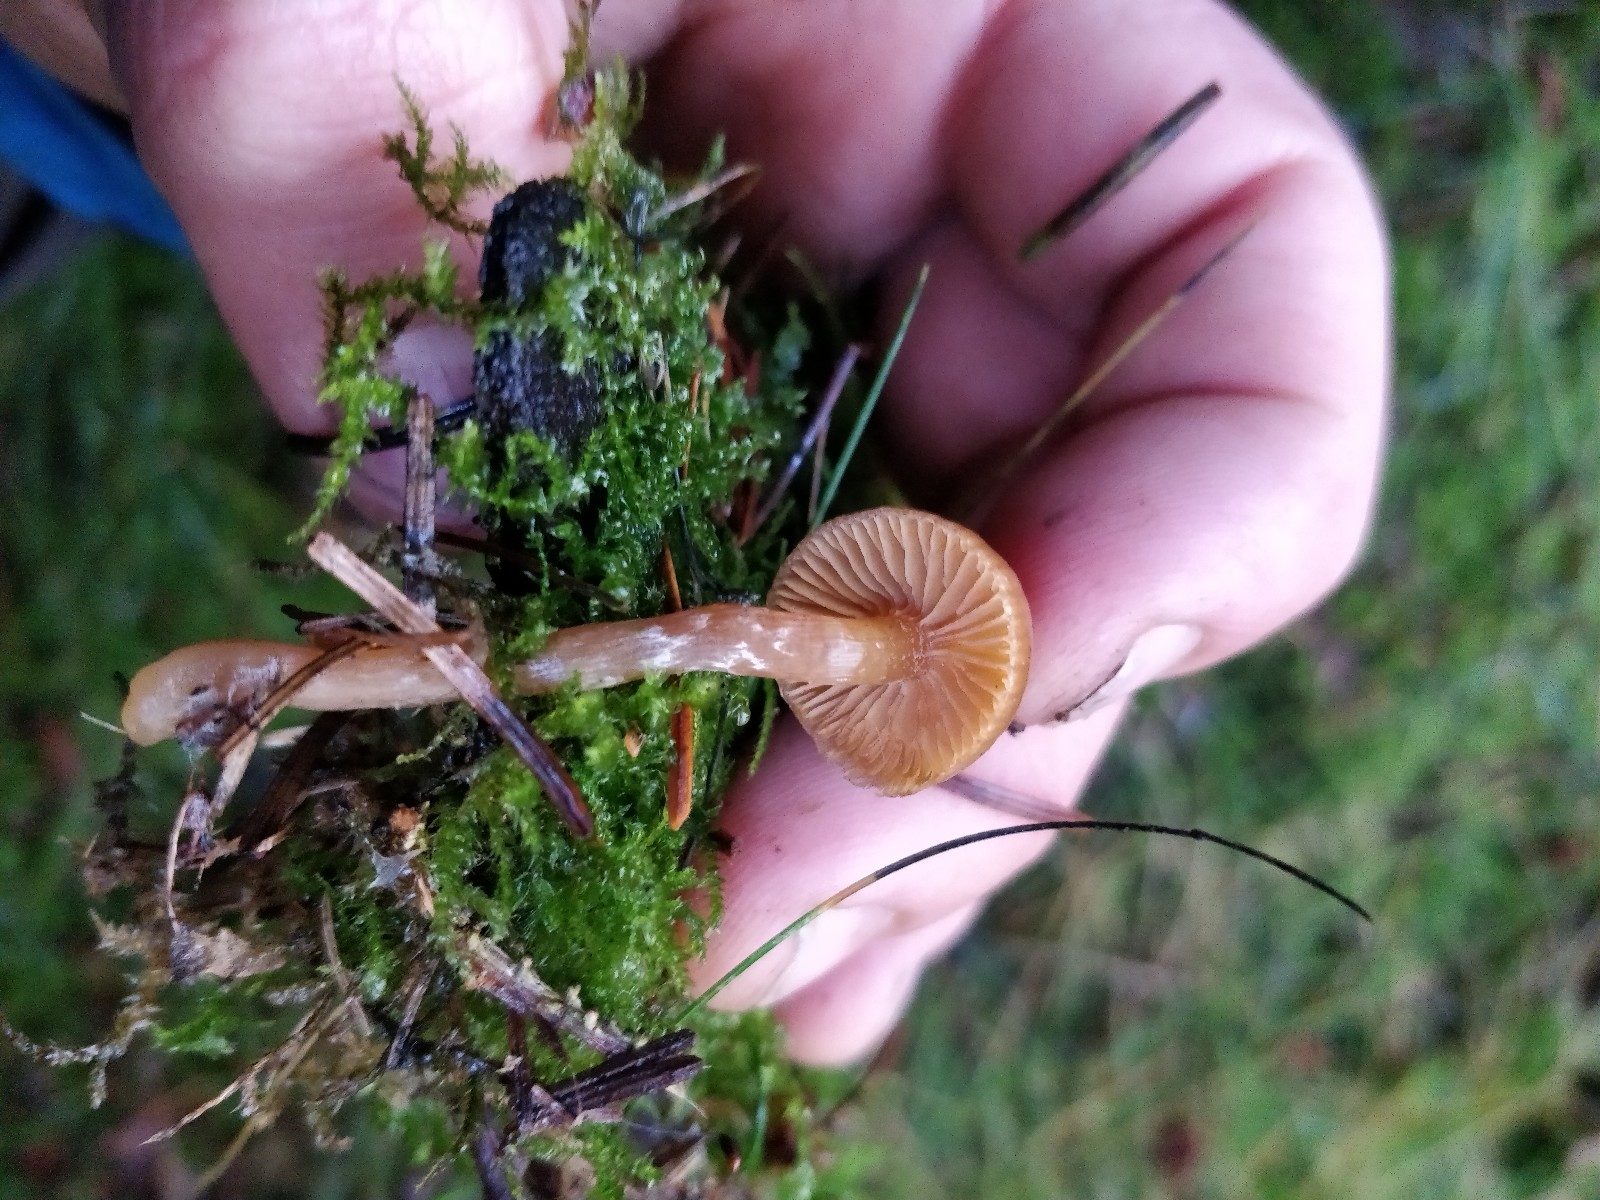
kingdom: Fungi
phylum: Basidiomycota
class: Agaricomycetes
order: Agaricales
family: Cortinariaceae
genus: Cortinarius
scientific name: Cortinarius
